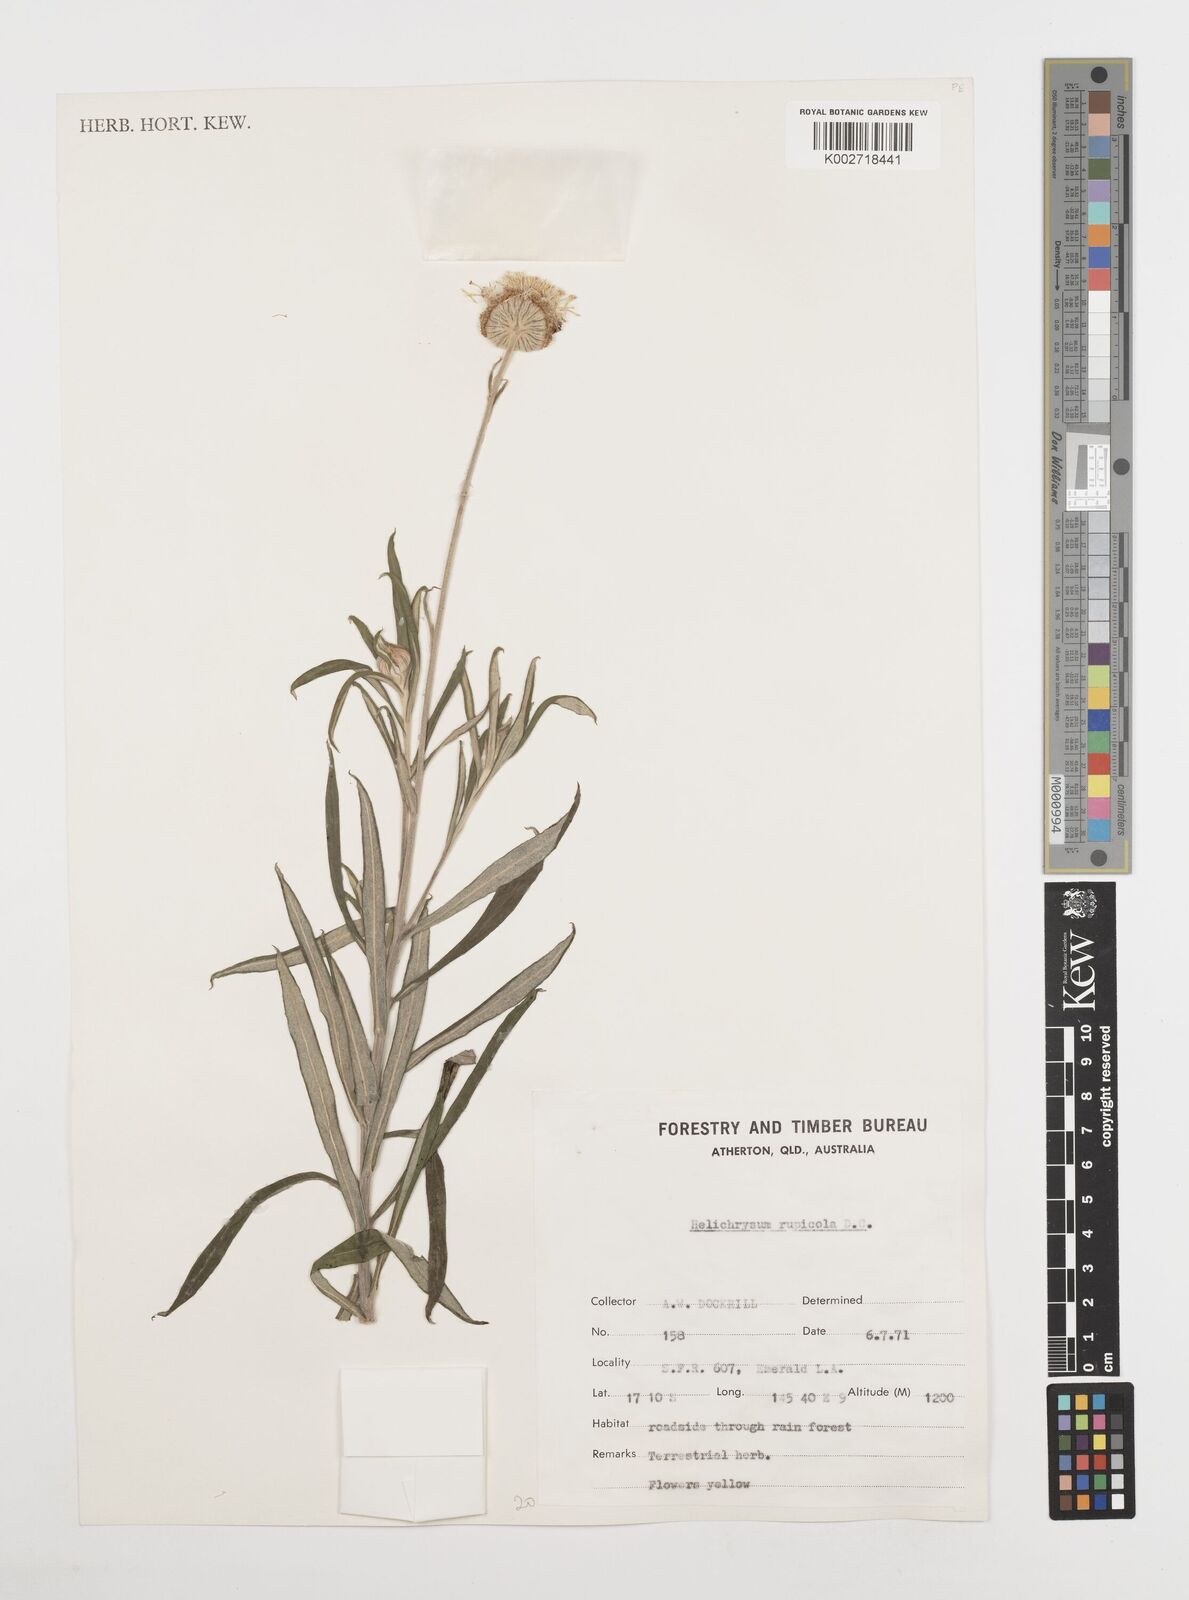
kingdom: Plantae
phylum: Tracheophyta
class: Magnoliopsida
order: Asterales
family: Asteraceae
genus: Coronidium
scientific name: Coronidium rupicola
